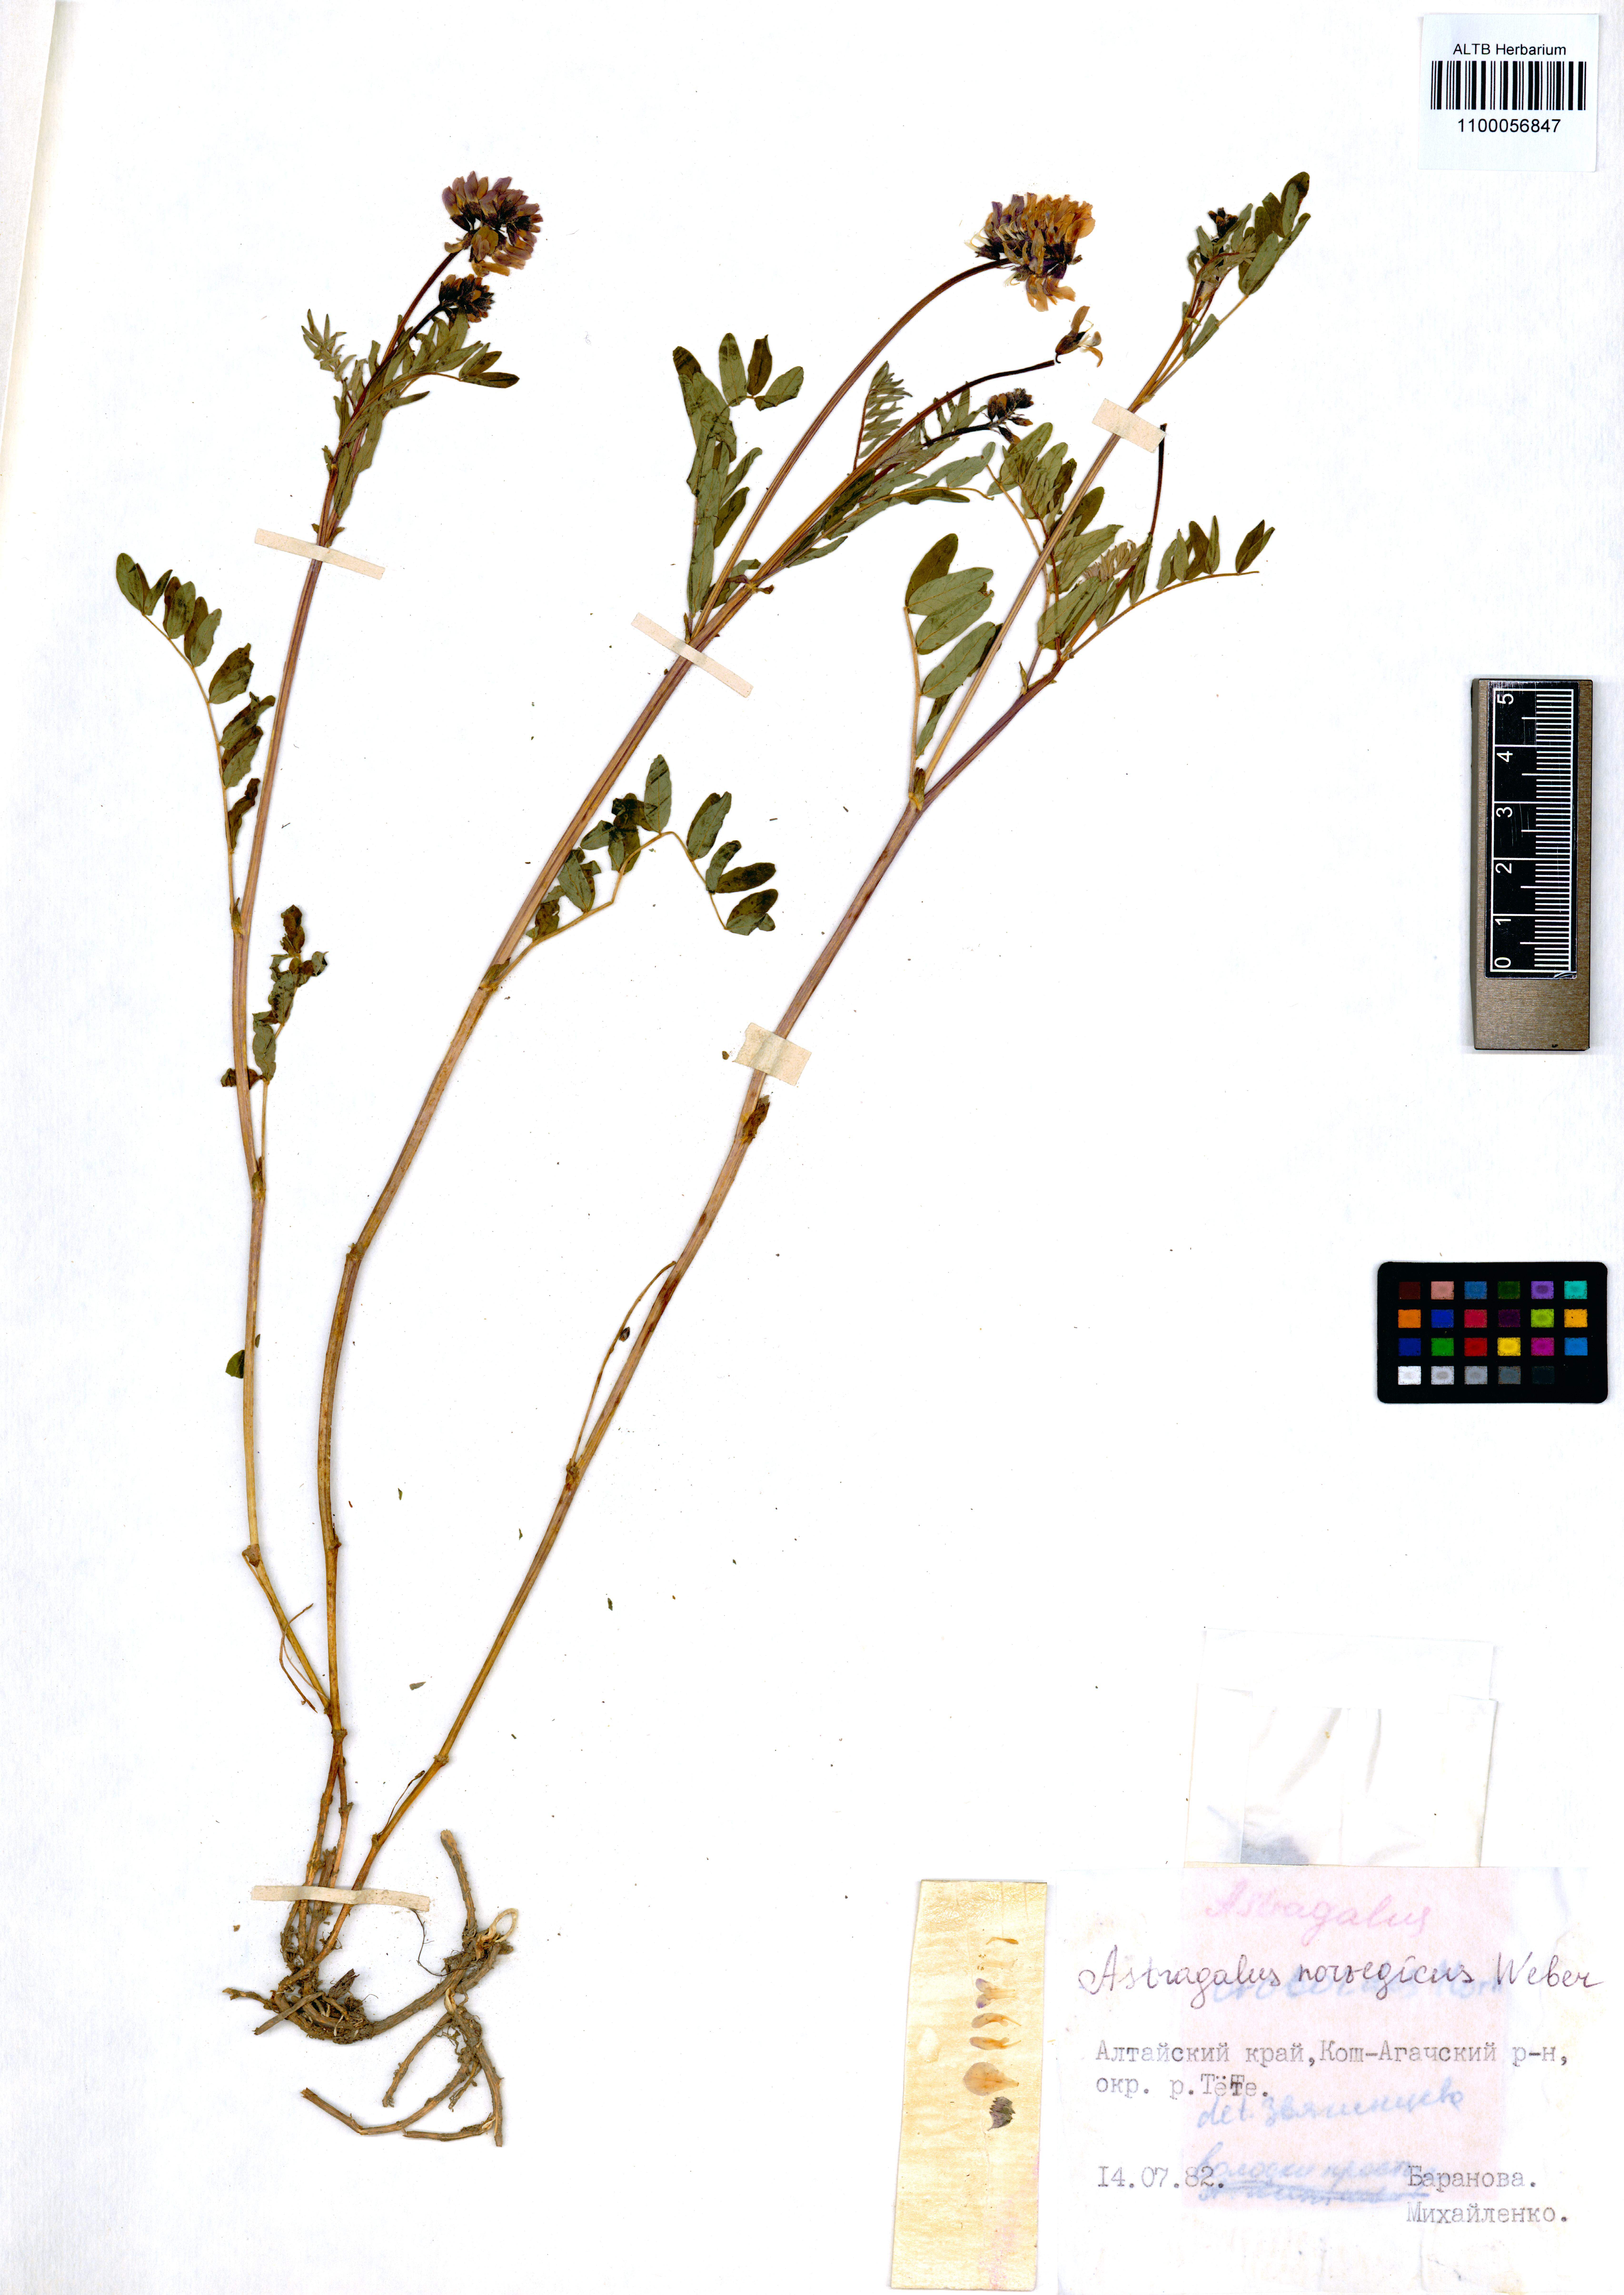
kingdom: Plantae
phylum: Tracheophyta
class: Magnoliopsida
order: Fabales
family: Fabaceae
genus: Astragalus
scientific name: Astragalus norvegicus
